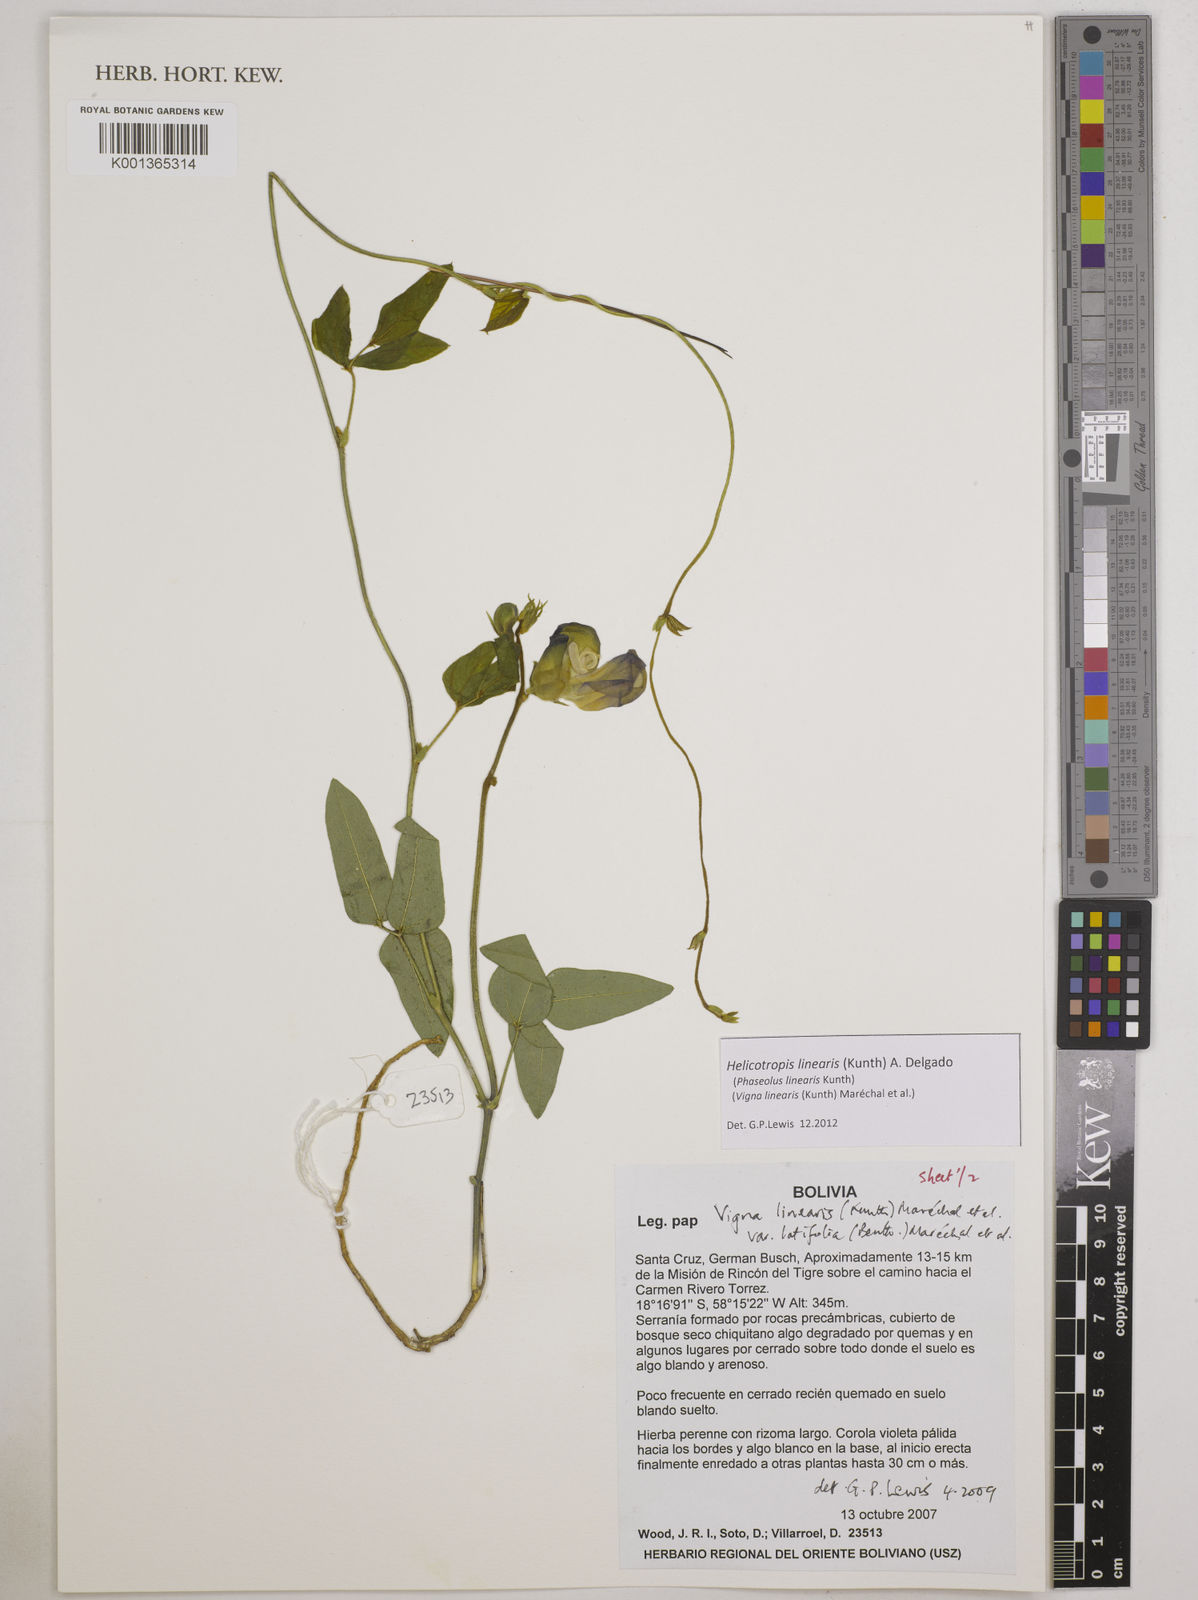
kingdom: Plantae
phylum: Tracheophyta
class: Magnoliopsida
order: Fabales
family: Fabaceae
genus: Helicotropis
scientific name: Helicotropis linearis
